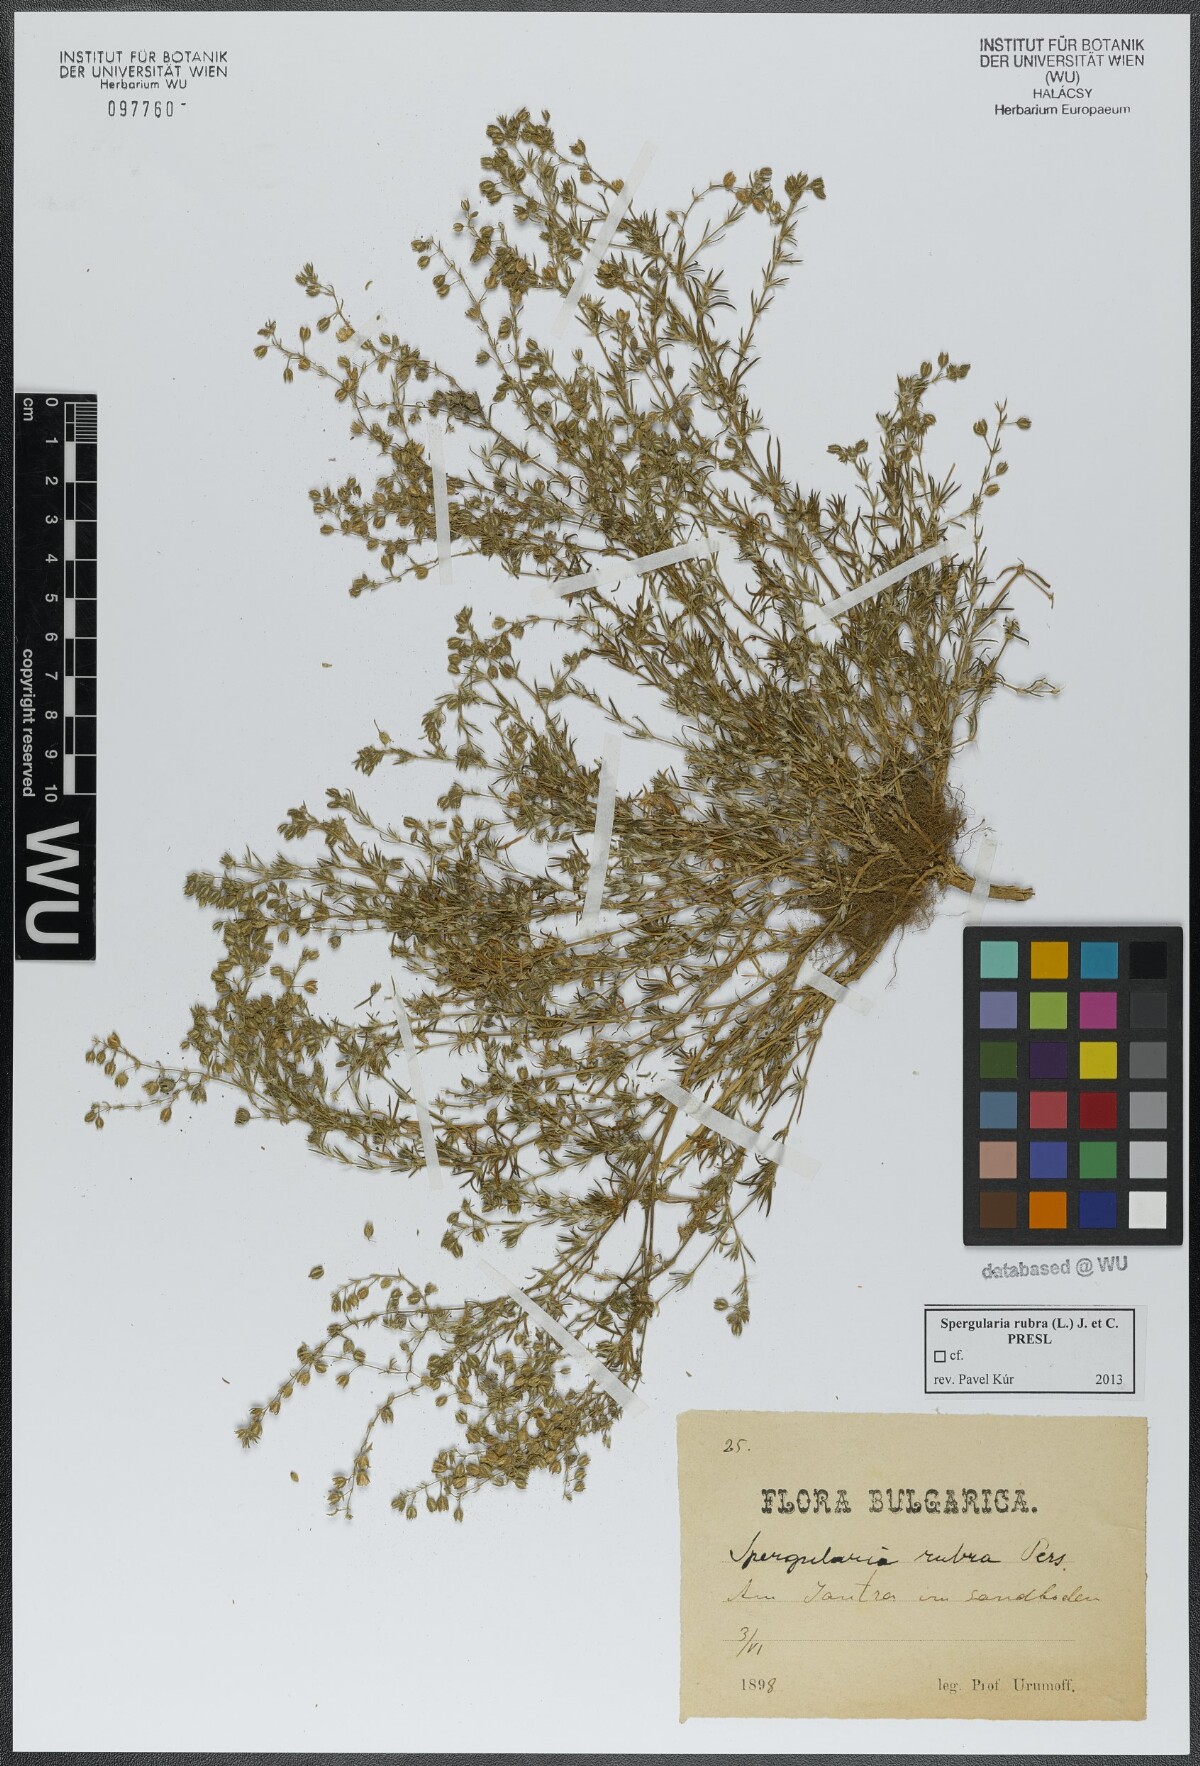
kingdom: Plantae
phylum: Tracheophyta
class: Magnoliopsida
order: Caryophyllales
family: Caryophyllaceae
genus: Spergularia
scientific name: Spergularia rubra
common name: Red sand-spurrey
